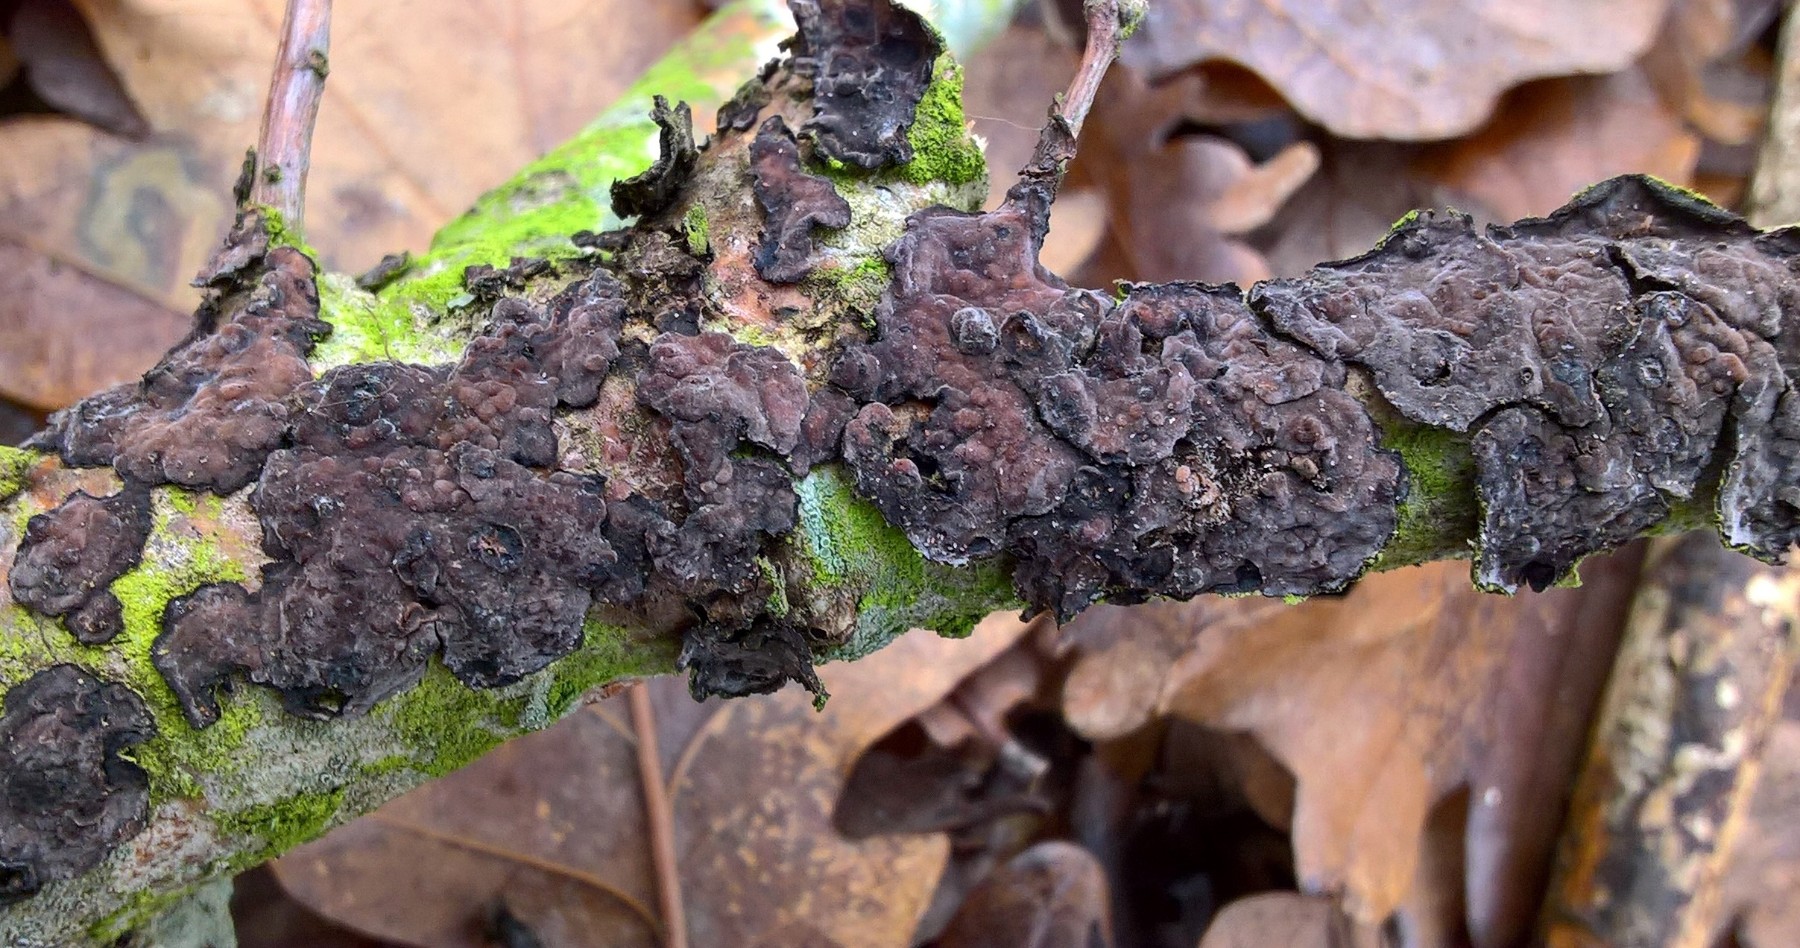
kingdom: Fungi
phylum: Basidiomycota
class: Agaricomycetes
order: Russulales
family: Peniophoraceae
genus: Peniophora
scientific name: Peniophora quercina
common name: ege-voksskind
